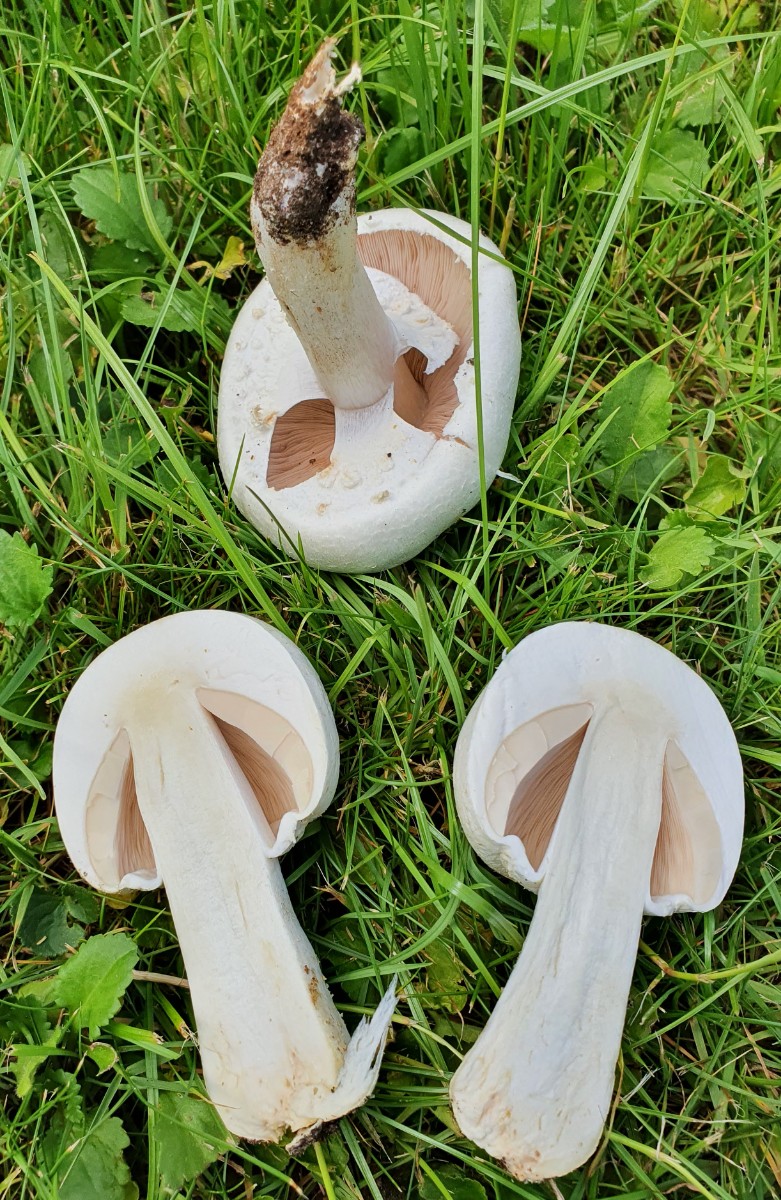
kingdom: Fungi
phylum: Basidiomycota
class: Agaricomycetes
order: Agaricales
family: Agaricaceae
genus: Agaricus
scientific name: Agaricus campestris
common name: mark-champignon
